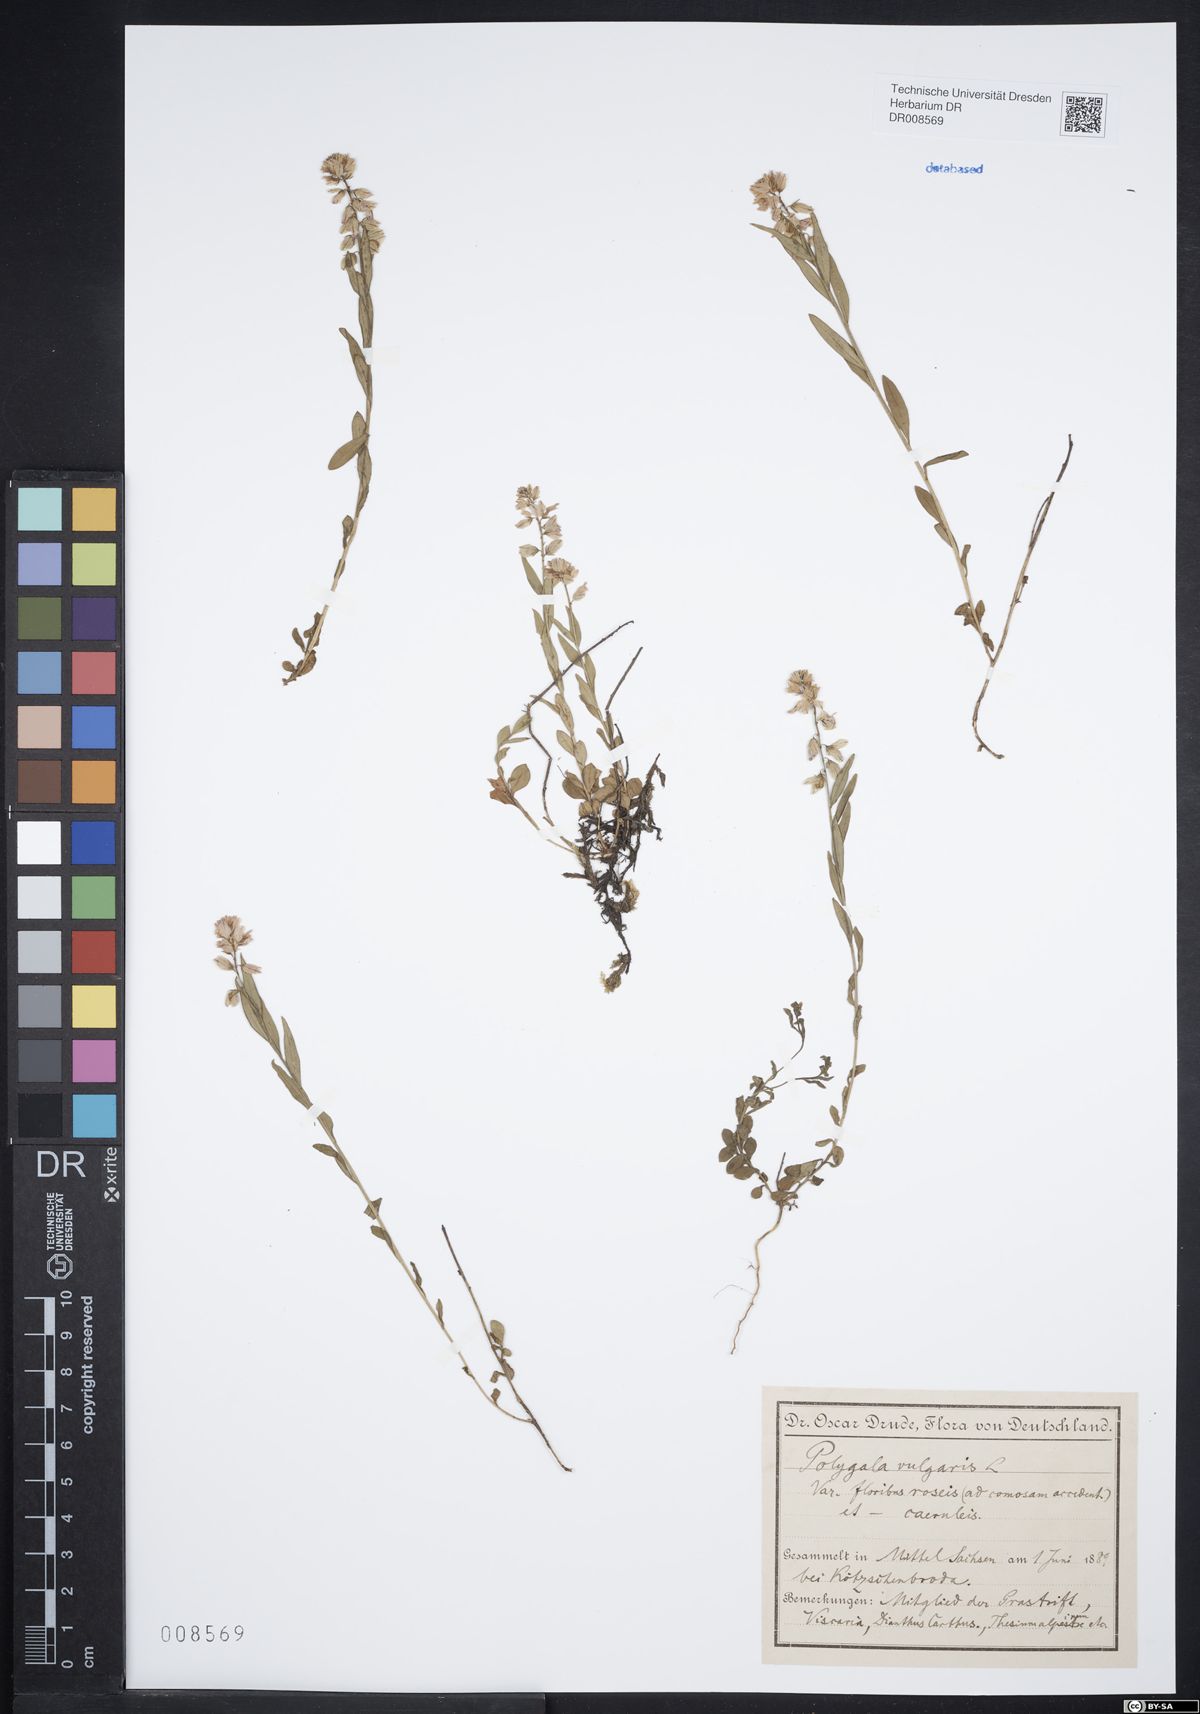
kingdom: Plantae
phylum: Tracheophyta
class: Magnoliopsida
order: Fabales
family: Polygalaceae
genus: Polygala
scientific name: Polygala vulgaris
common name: Common milkwort
